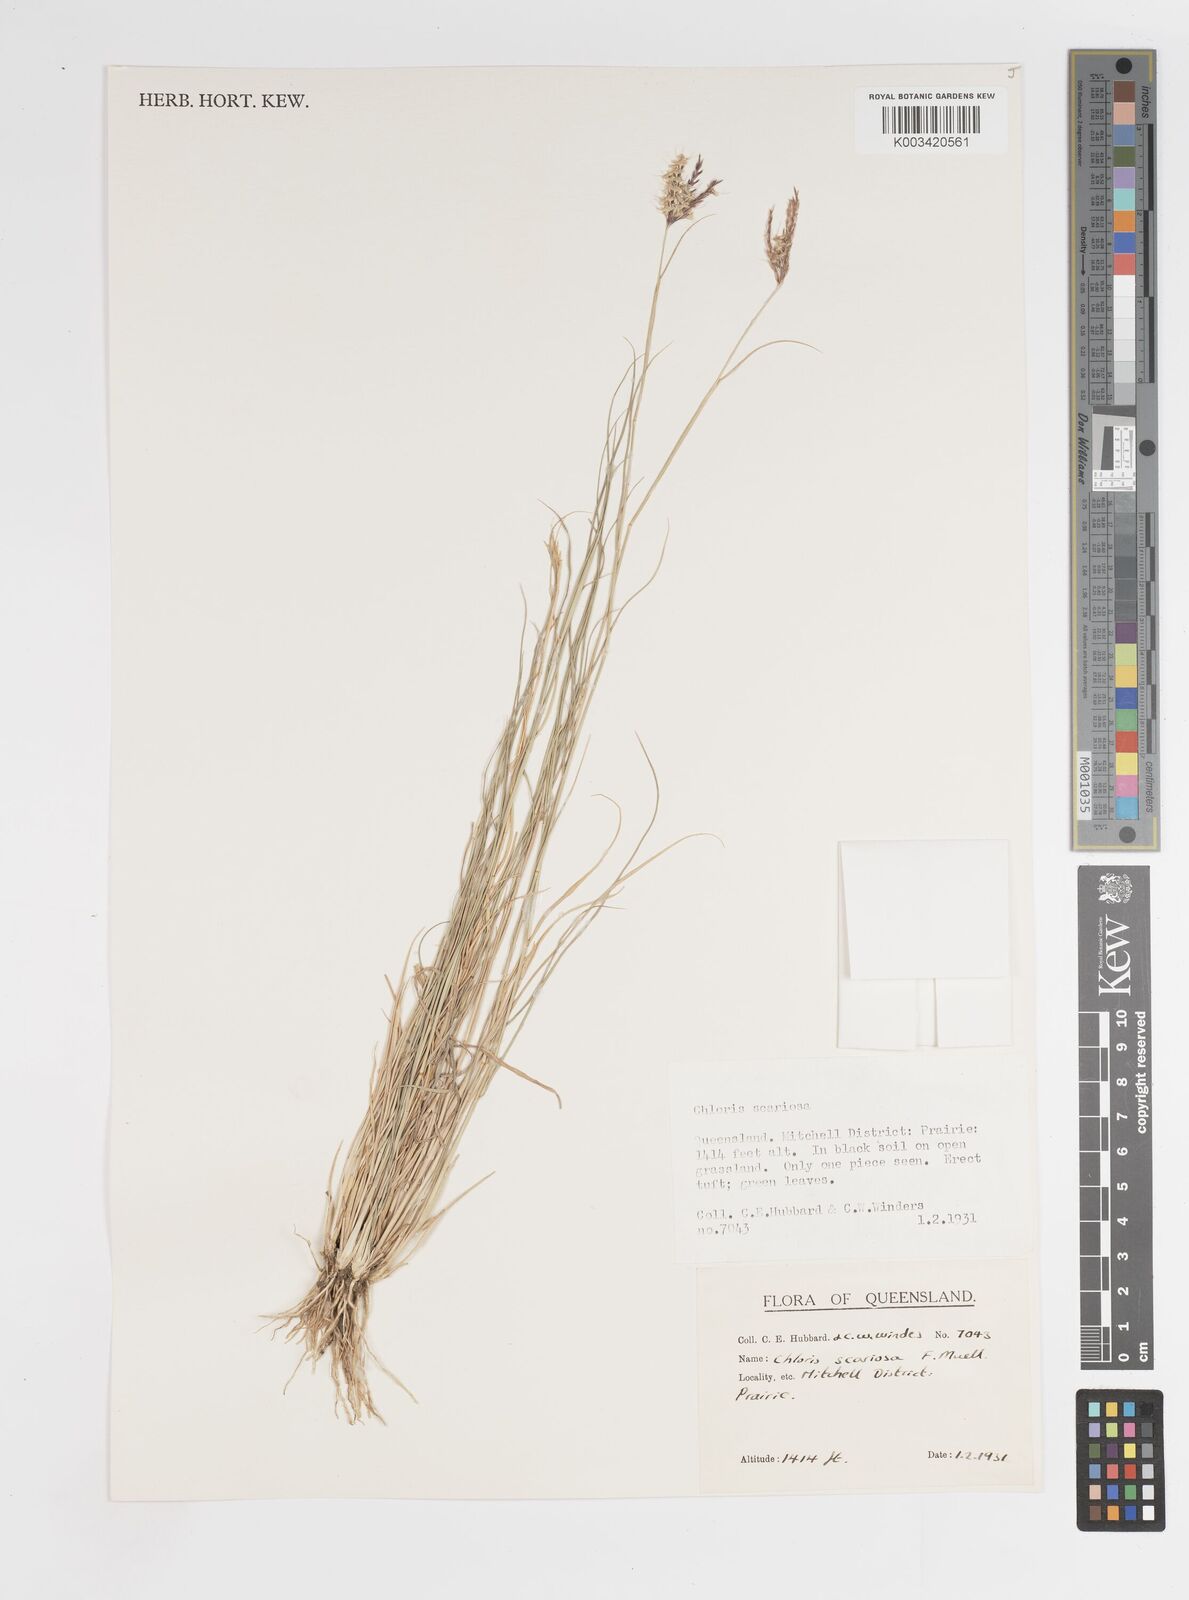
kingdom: Plantae
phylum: Tracheophyta
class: Liliopsida
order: Poales
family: Poaceae
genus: Oxychloris
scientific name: Oxychloris scariosa
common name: Winged windmill grass
